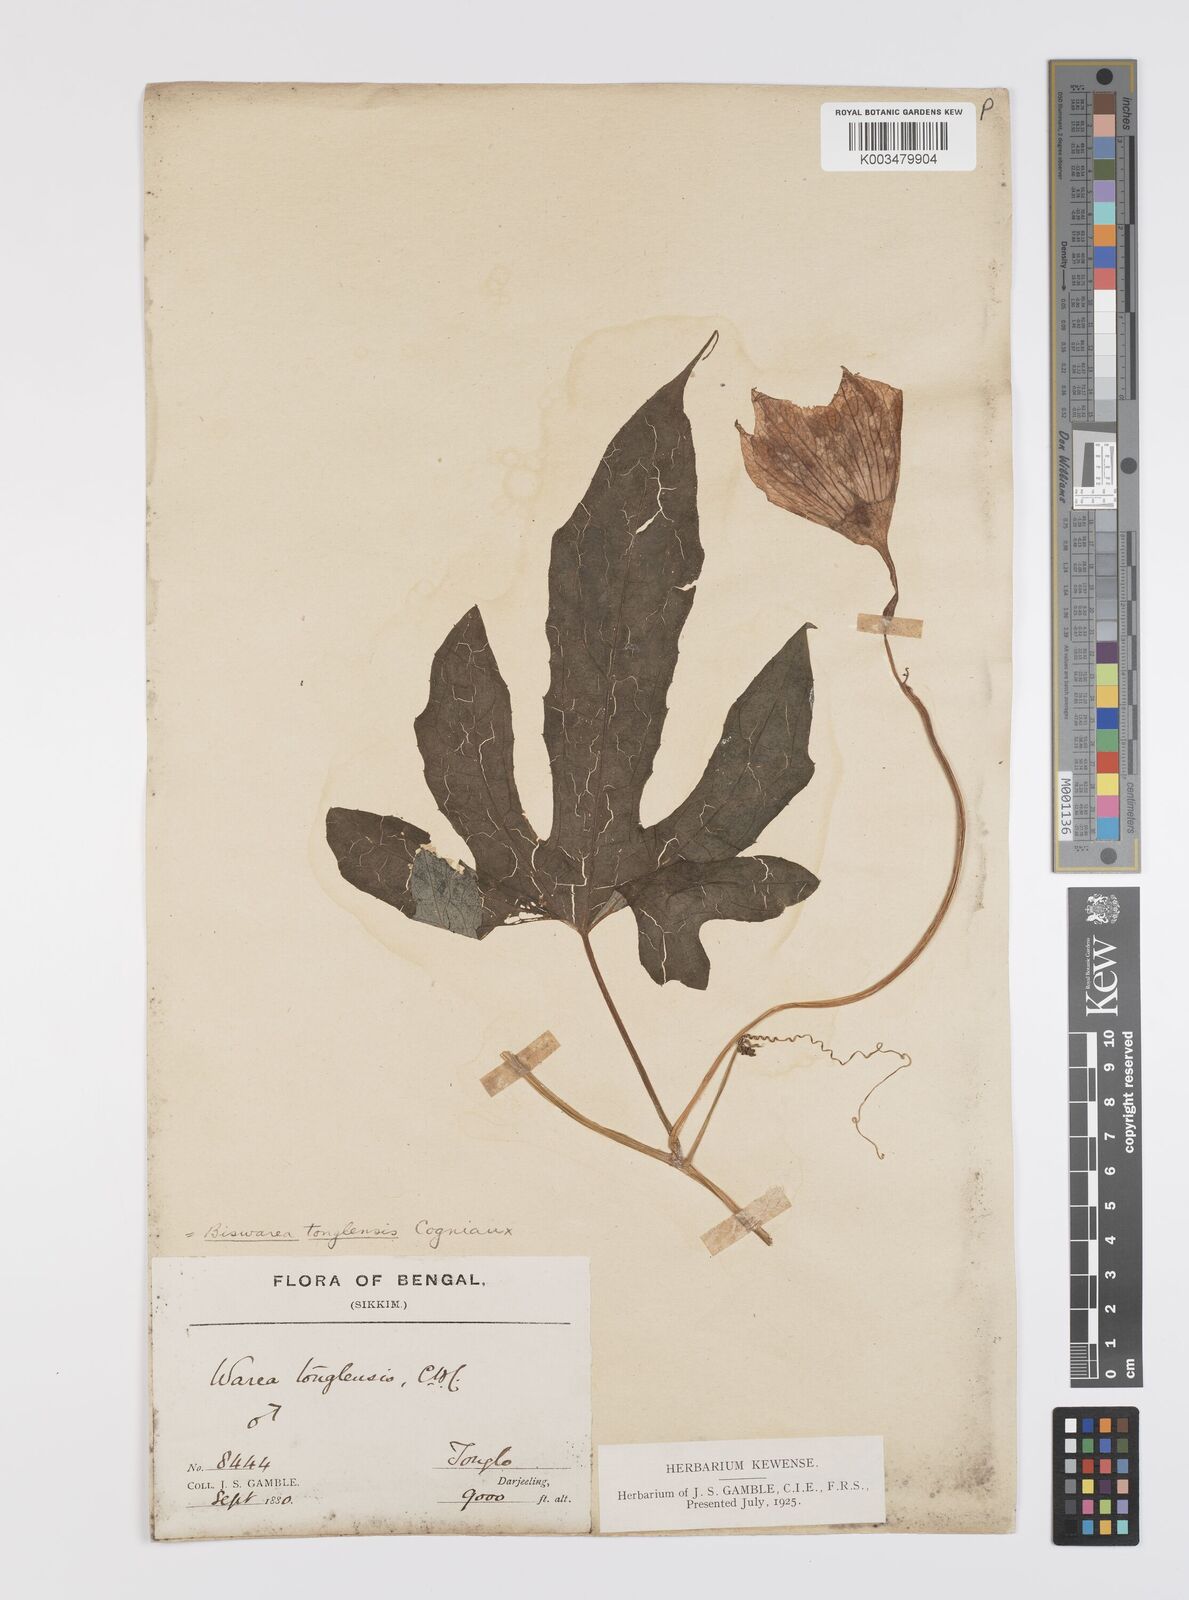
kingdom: Plantae
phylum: Tracheophyta
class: Magnoliopsida
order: Cucurbitales
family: Cucurbitaceae
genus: Benincasa
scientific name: Benincasa
